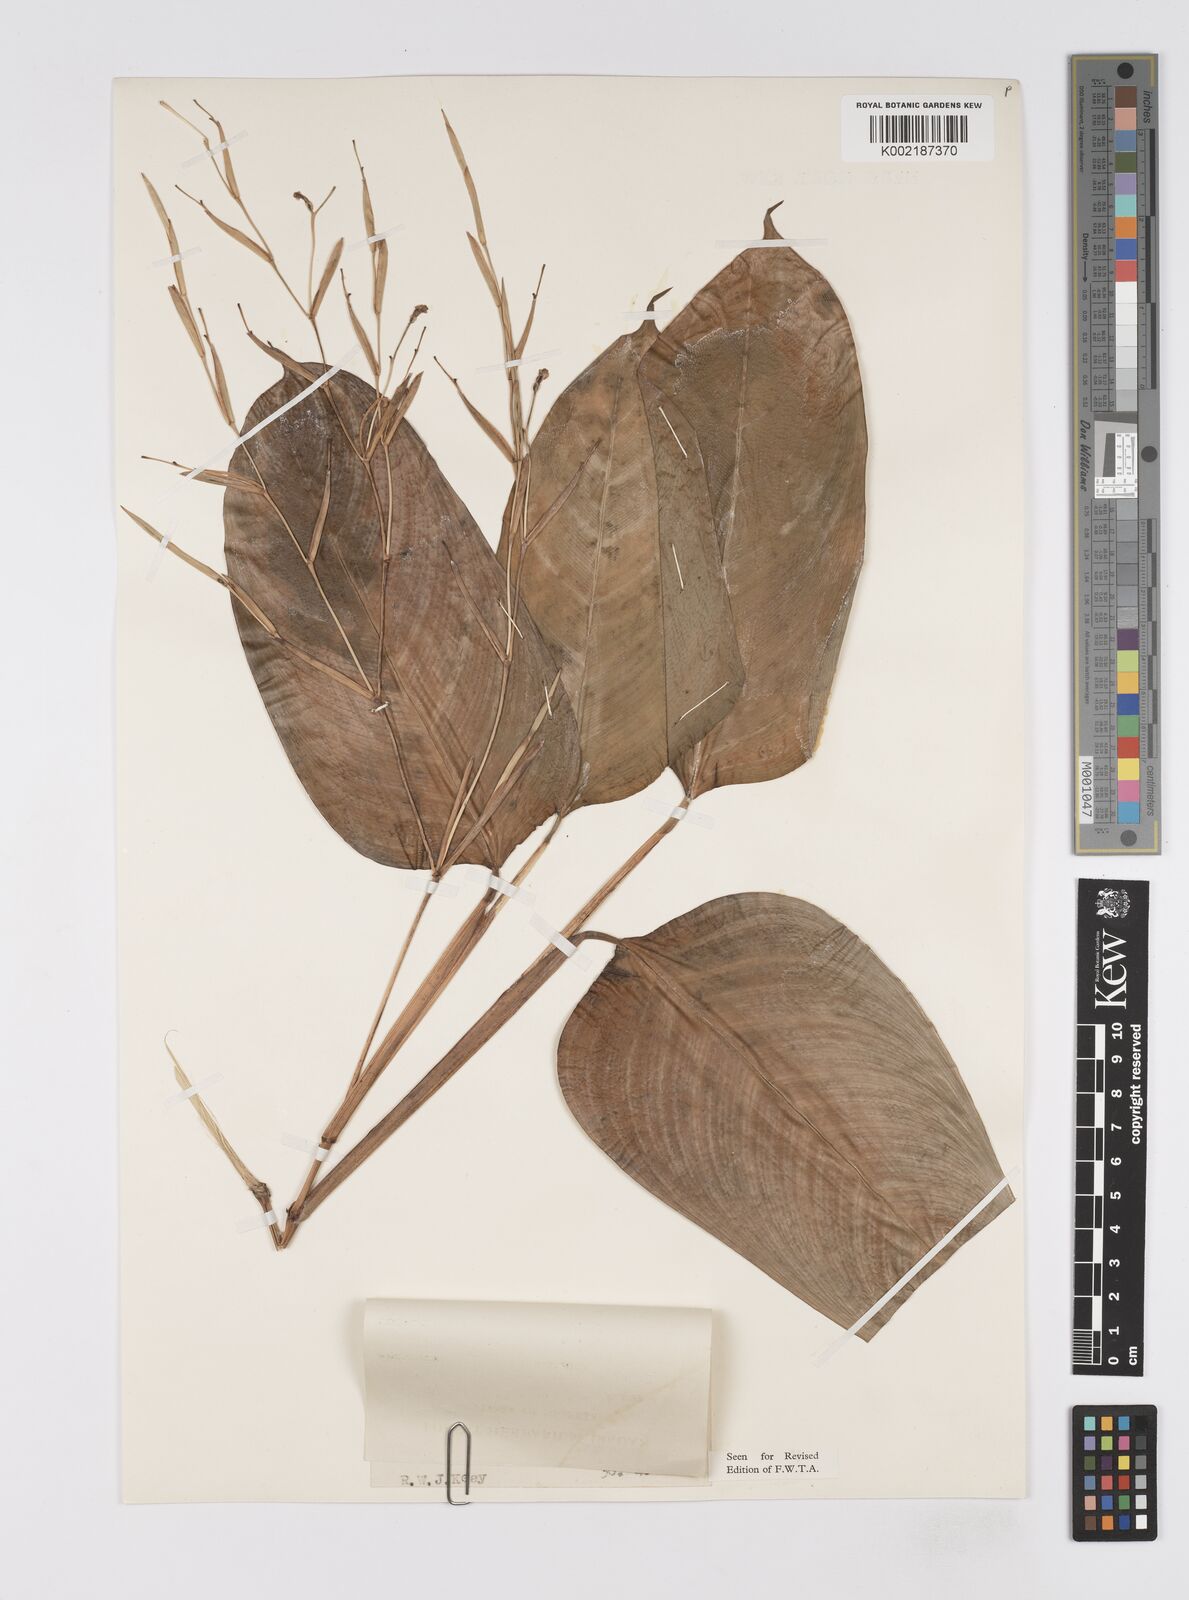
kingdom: Plantae
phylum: Tracheophyta
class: Liliopsida
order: Zingiberales
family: Marantaceae
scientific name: Marantaceae
